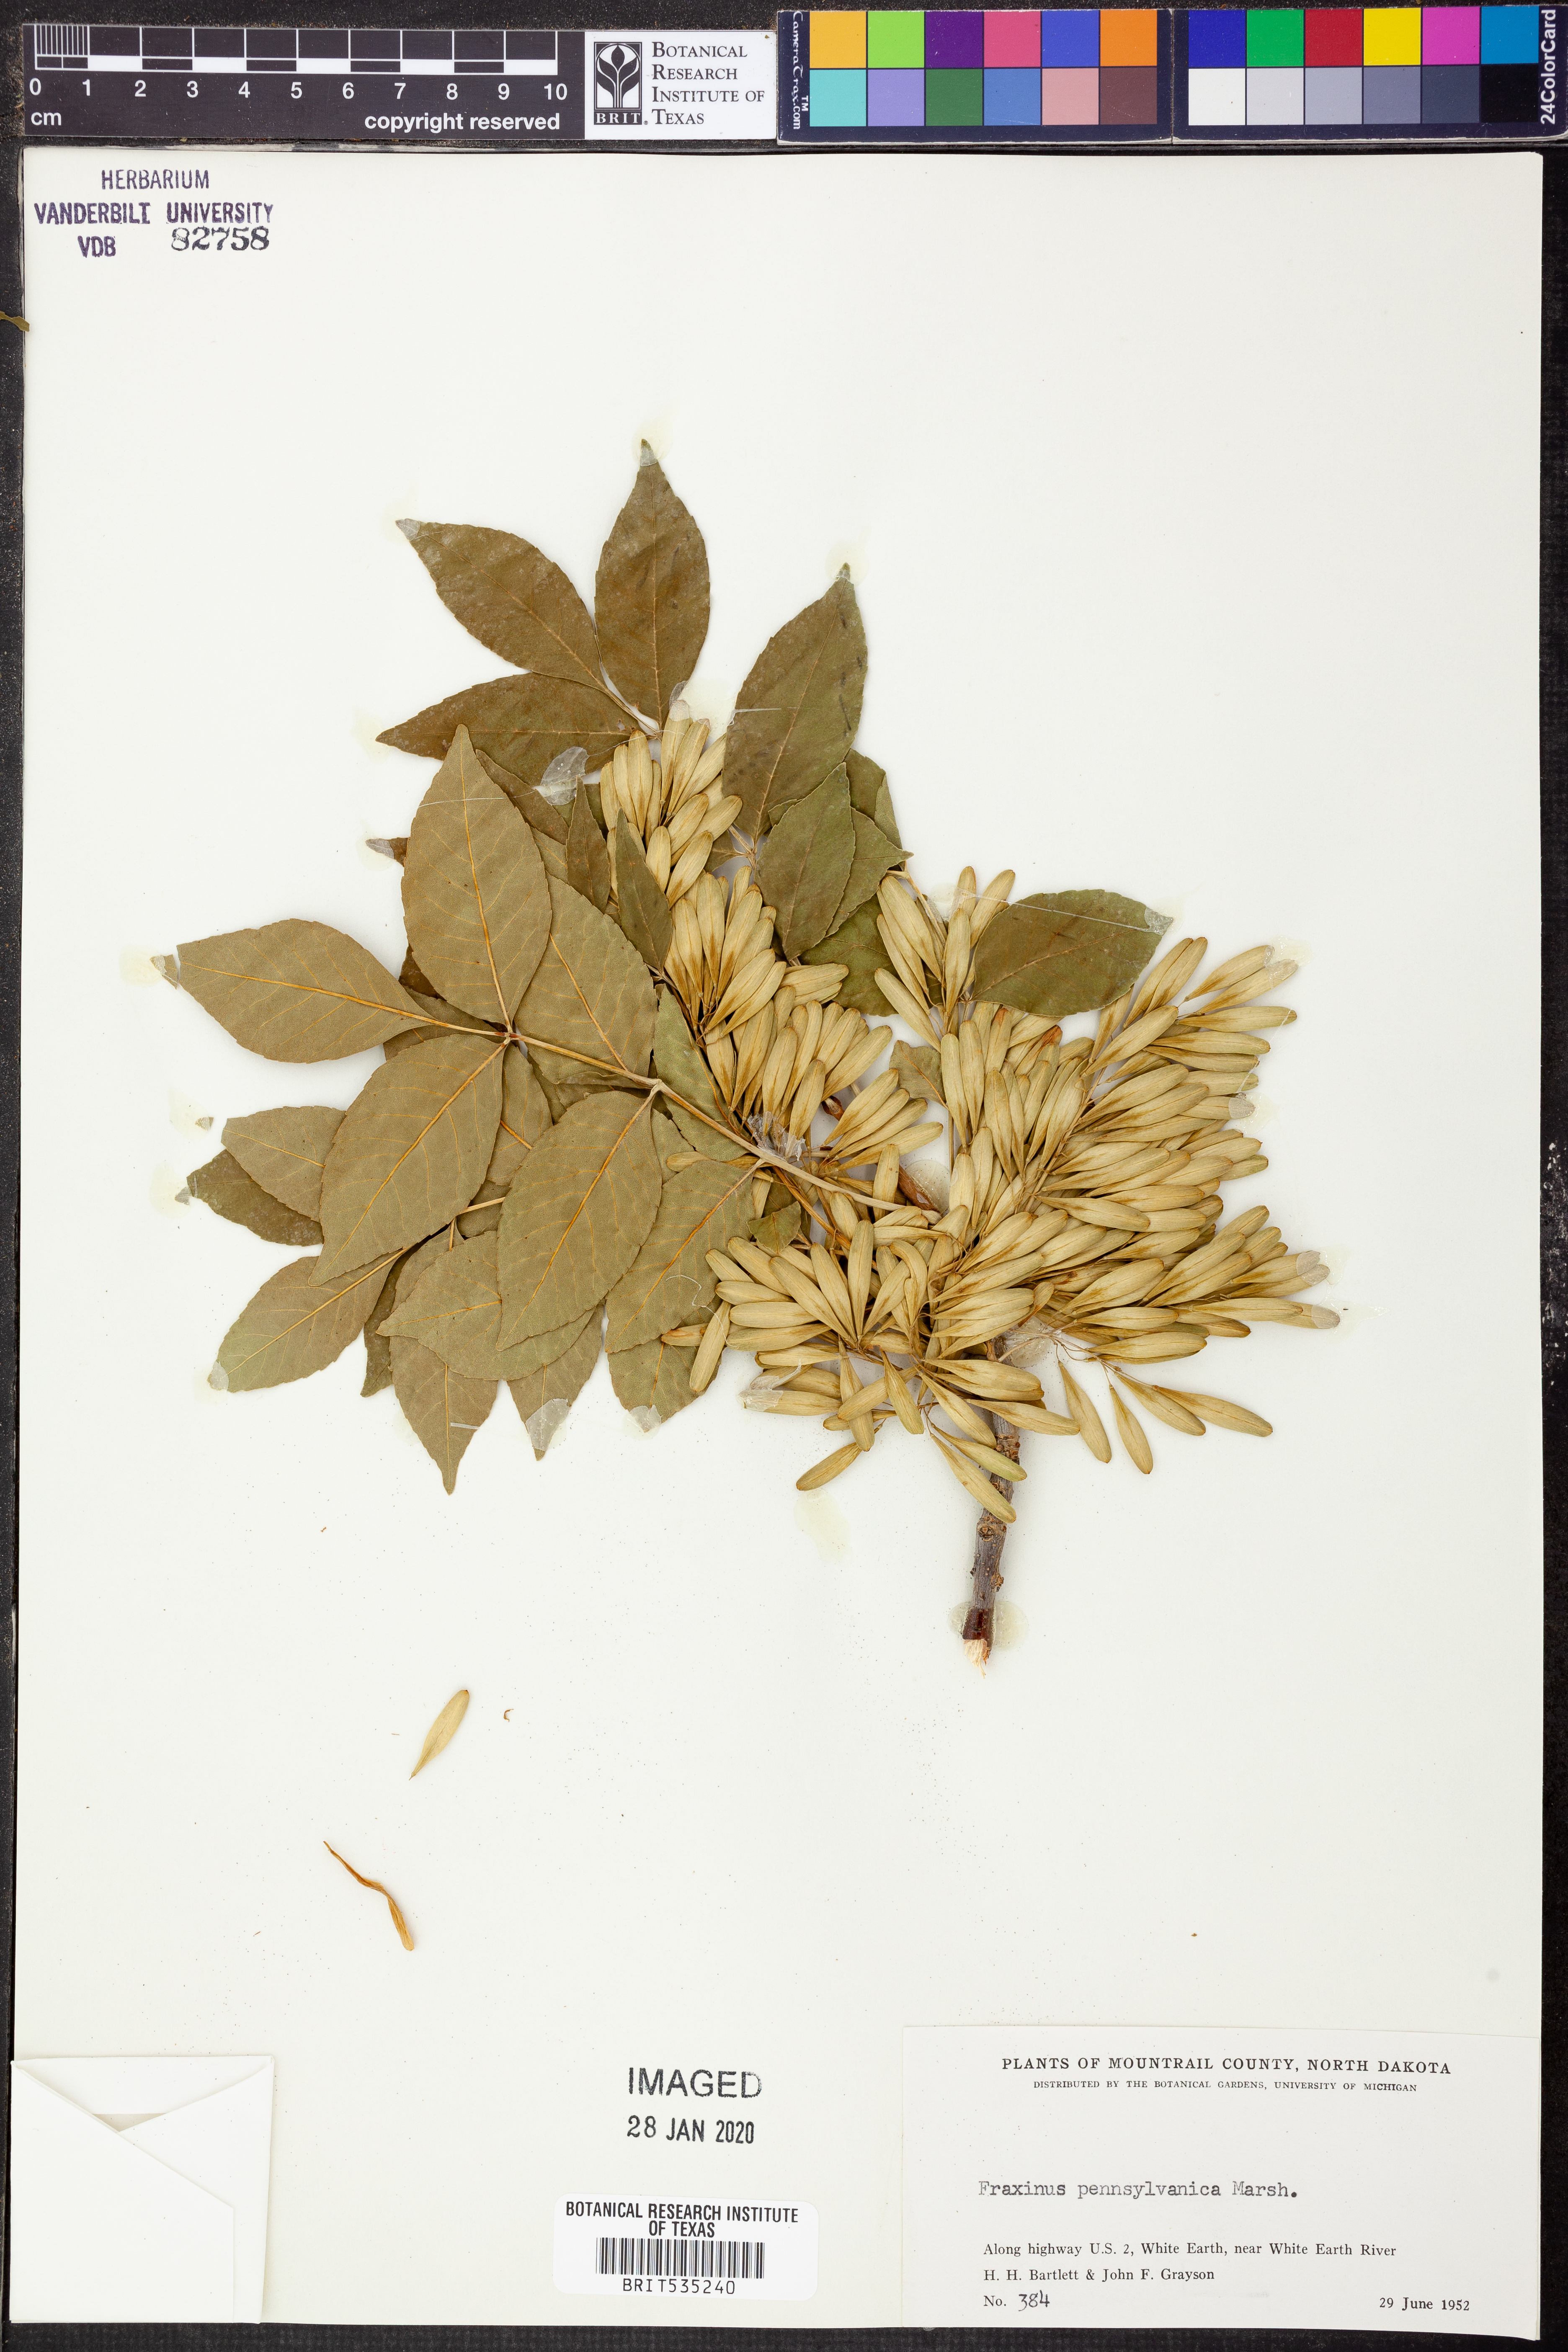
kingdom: Plantae
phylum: Tracheophyta
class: Magnoliopsida
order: Lamiales
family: Oleaceae
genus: Fraxinus
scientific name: Fraxinus pennsylvanica
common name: Green ash
